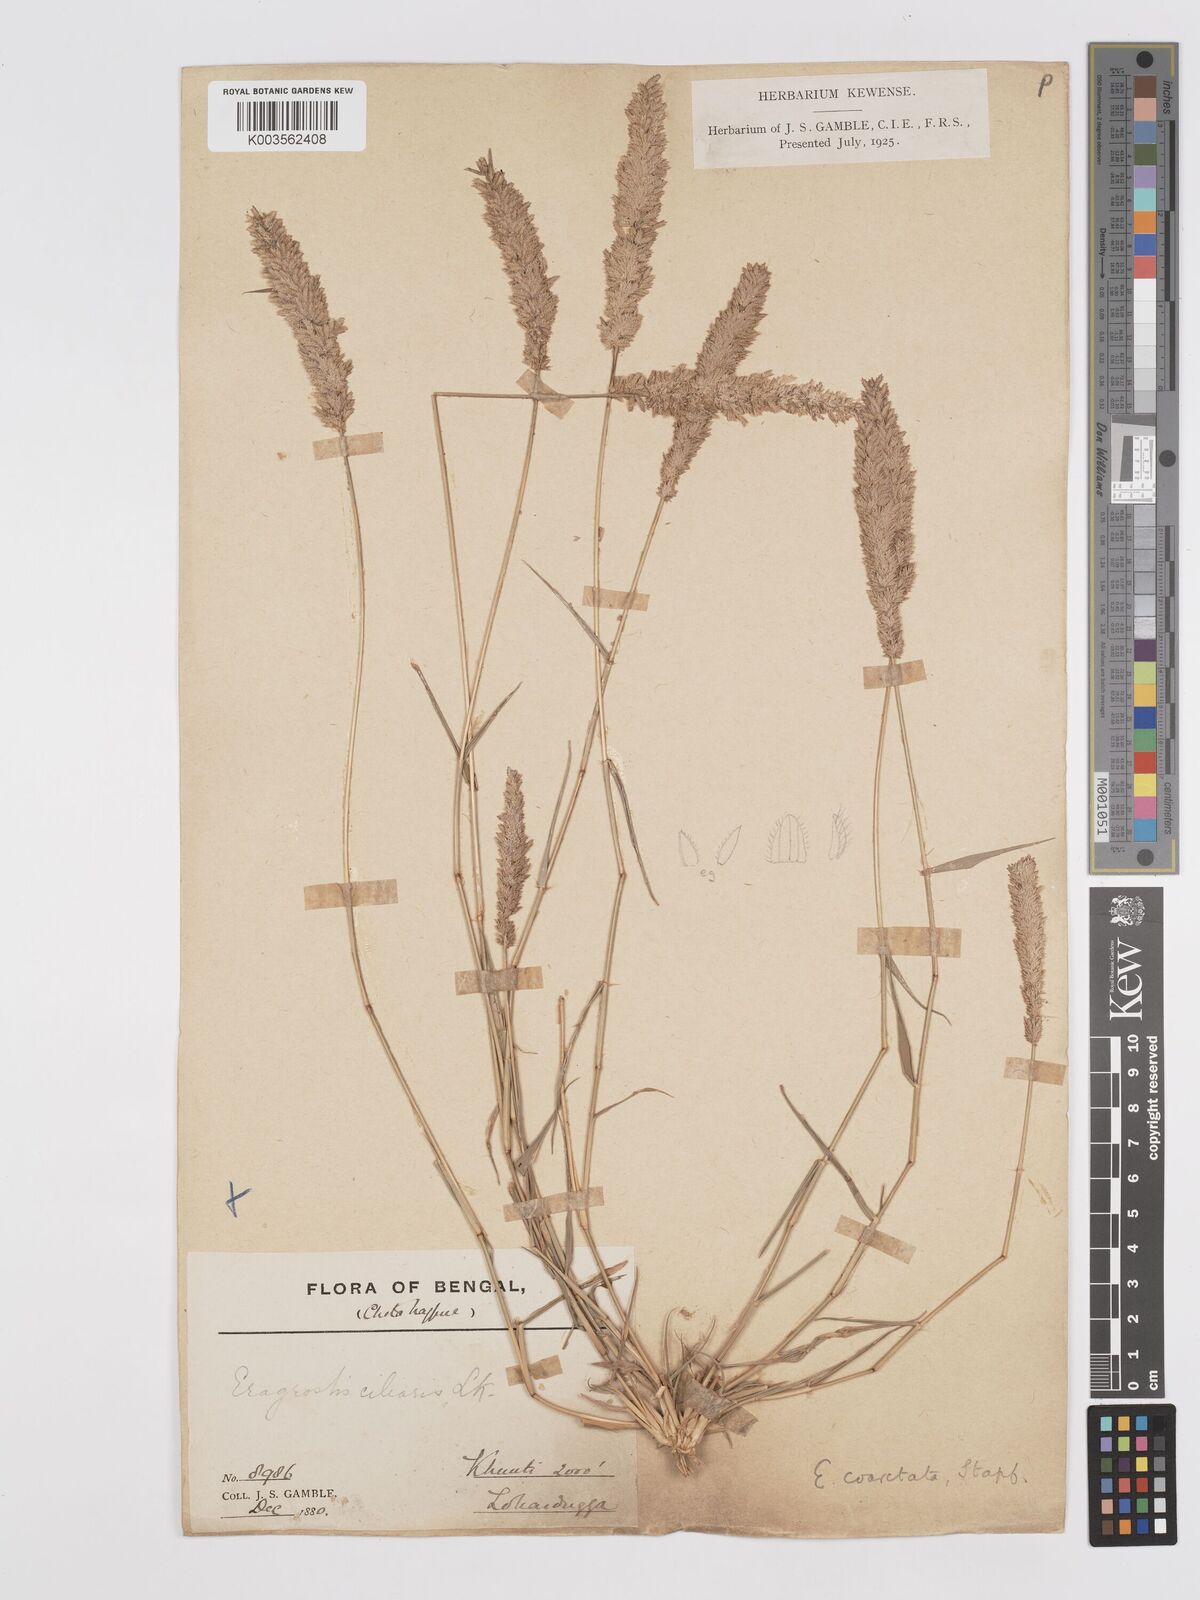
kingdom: Plantae
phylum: Tracheophyta
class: Liliopsida
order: Poales
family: Poaceae
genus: Eragrostis
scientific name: Eragrostis coarctata
